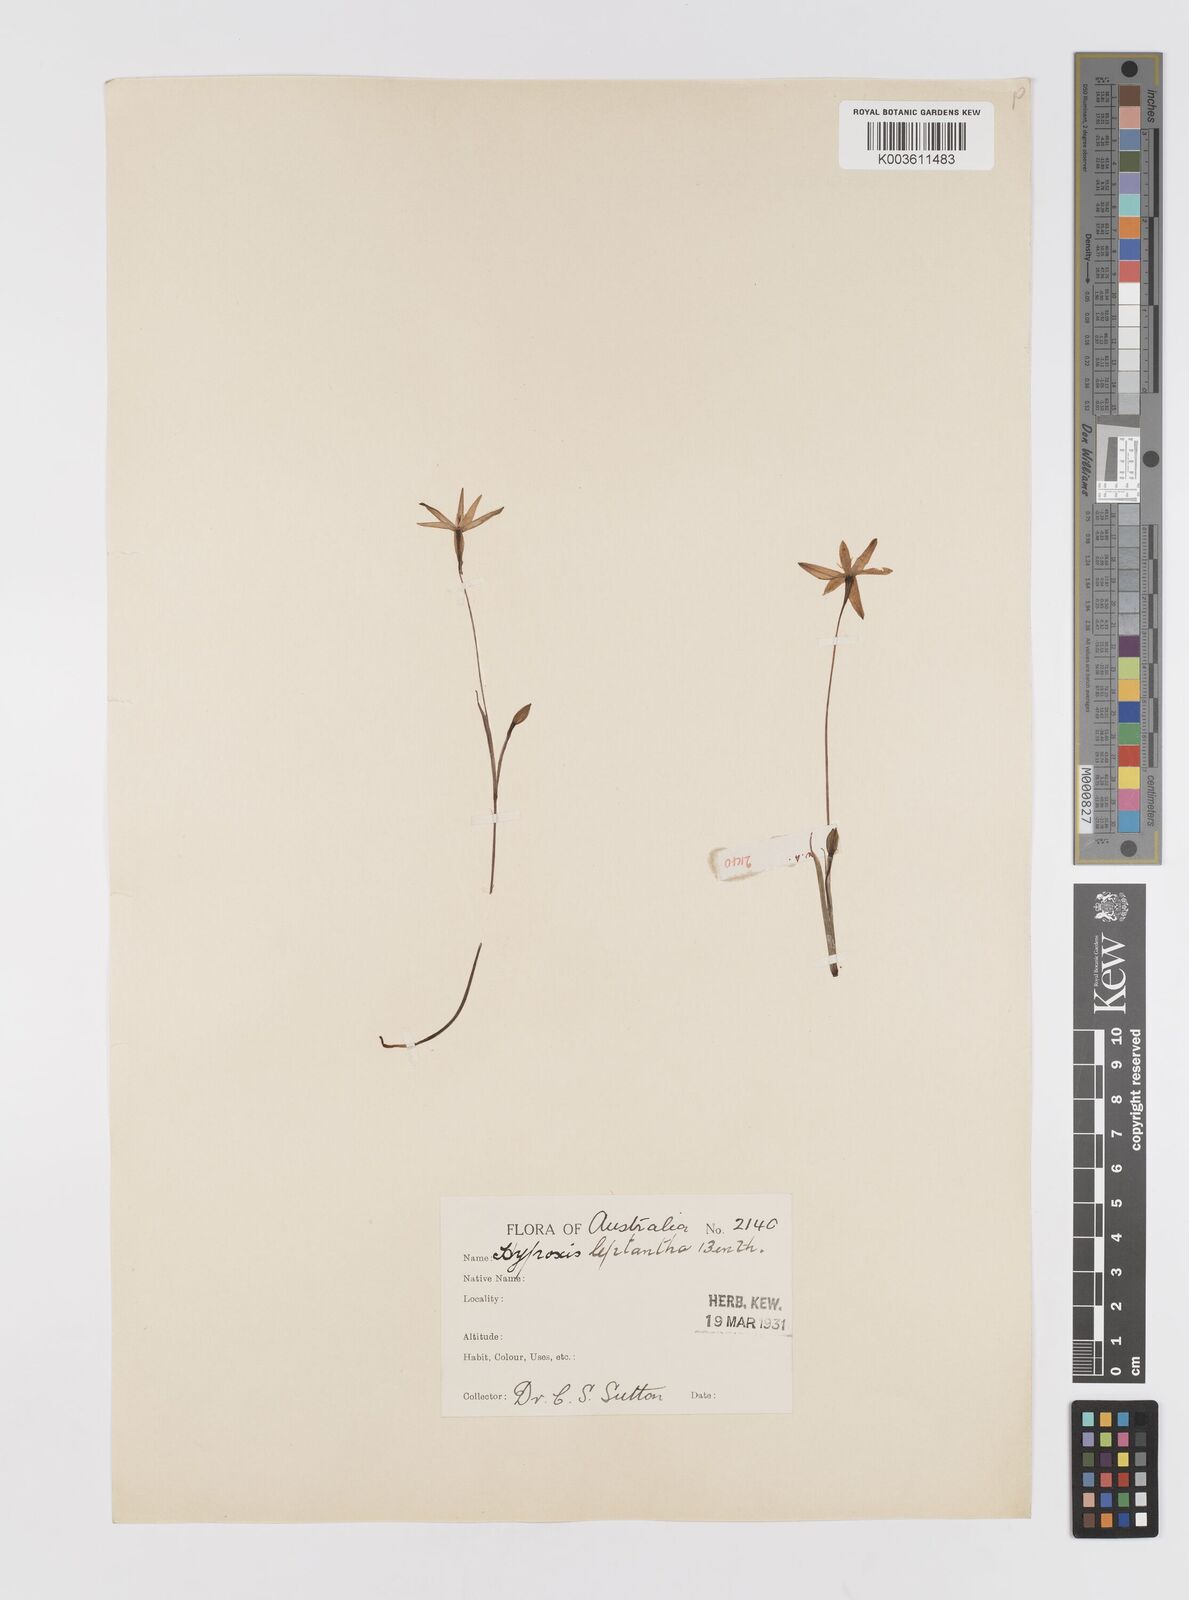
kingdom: Plantae
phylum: Tracheophyta
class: Liliopsida
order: Asparagales
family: Hypoxidaceae
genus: Hypoxis
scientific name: Hypoxis hygrometrica
